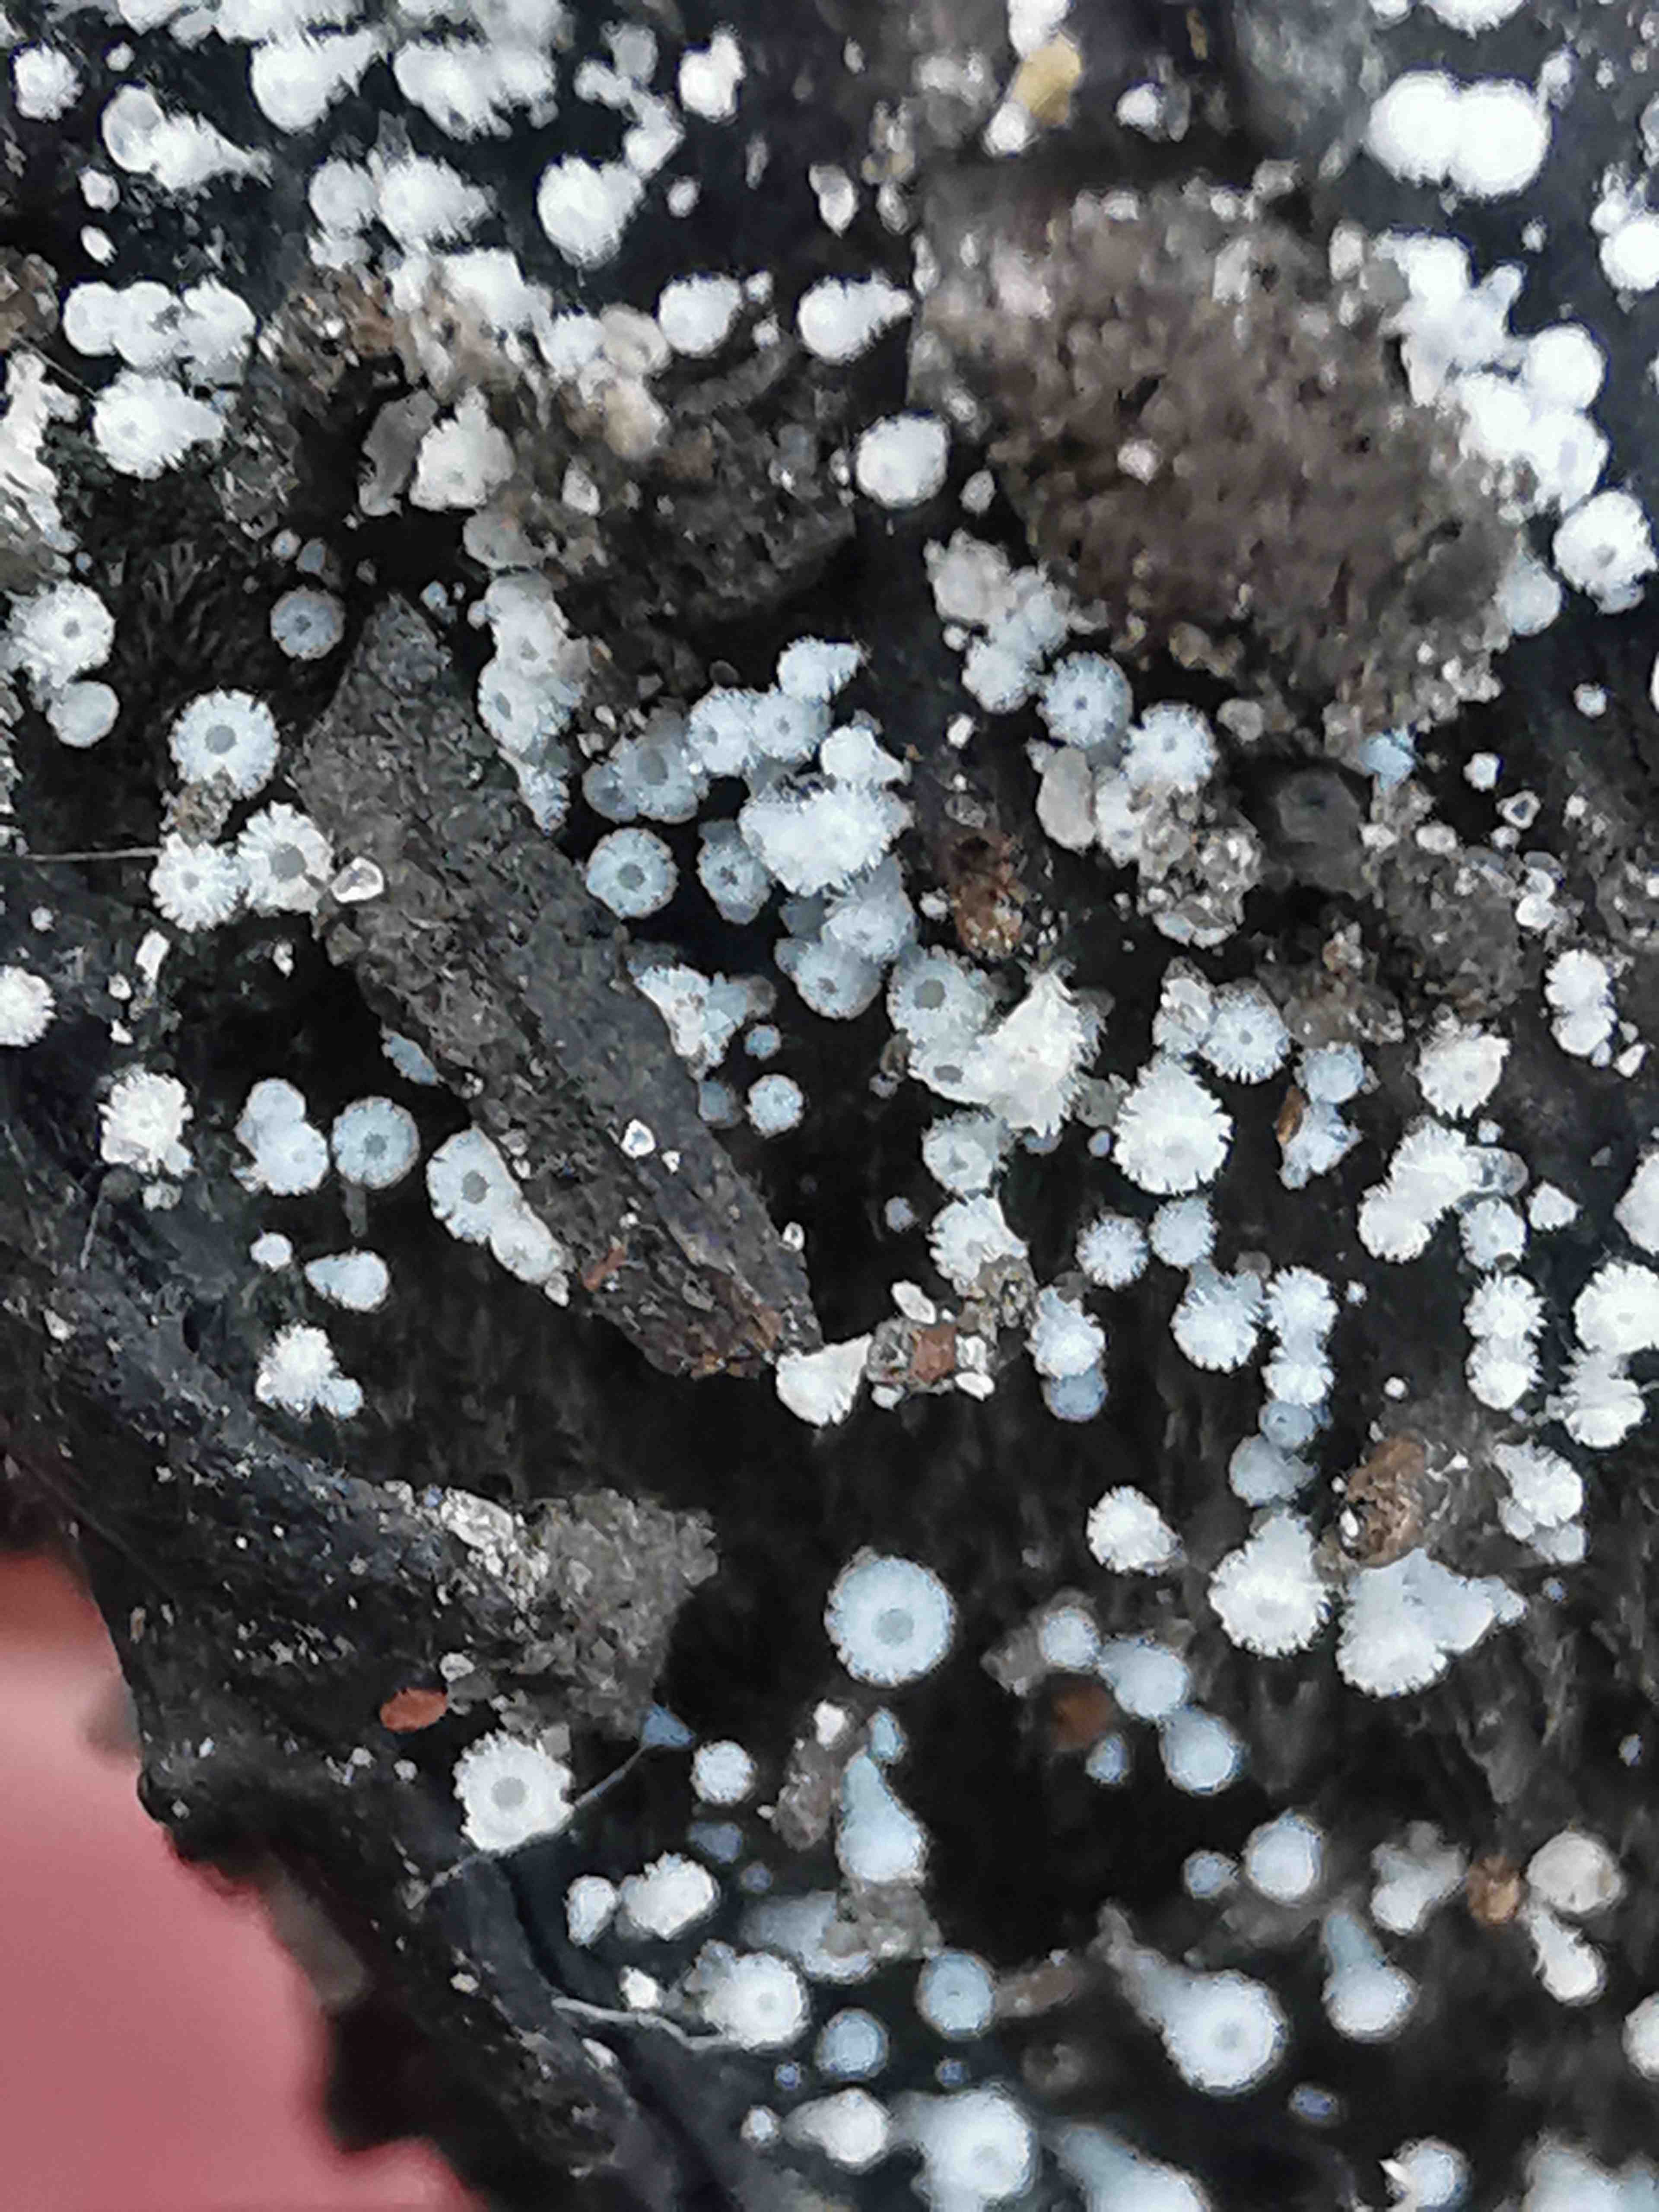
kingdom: Fungi
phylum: Ascomycota
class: Leotiomycetes
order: Helotiales
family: Lachnaceae
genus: Lachnum
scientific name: Lachnum virgineum
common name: jomfru-frynseskive
